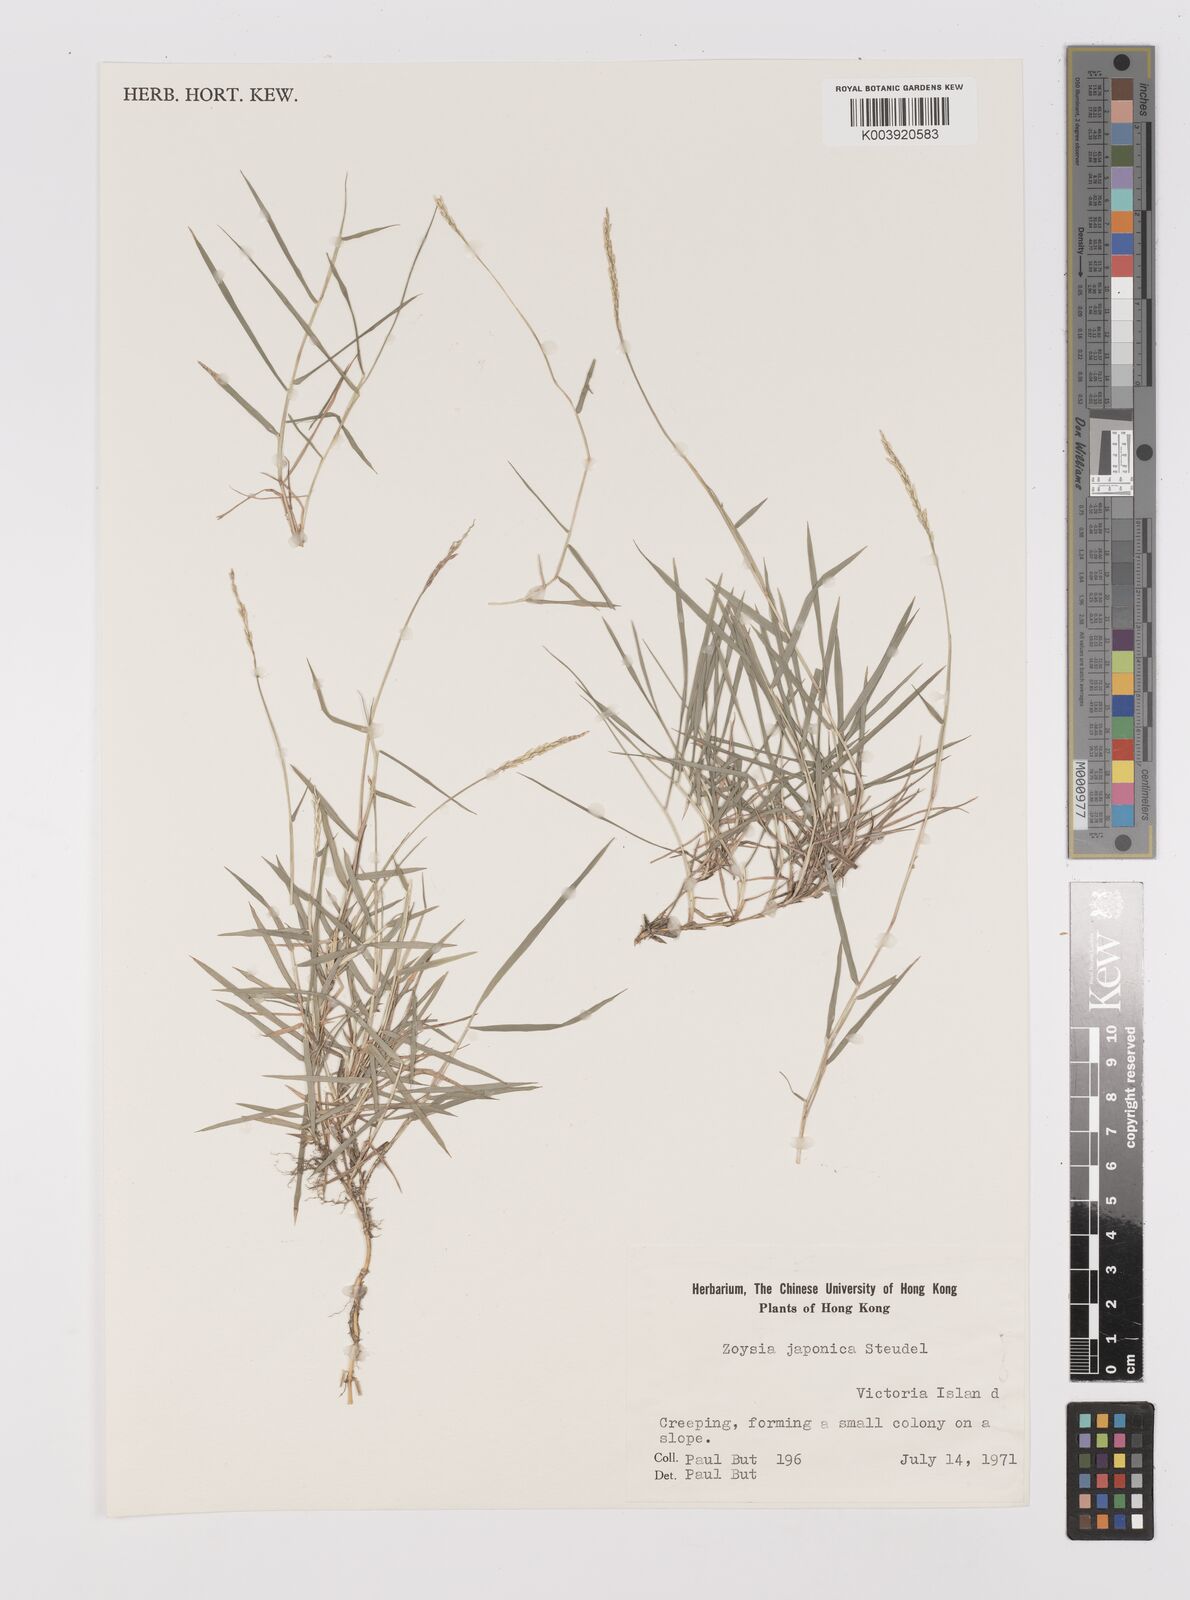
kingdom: Plantae
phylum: Tracheophyta
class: Liliopsida
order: Poales
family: Poaceae
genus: Zoysia
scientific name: Zoysia japonica
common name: Korean lawngrass
